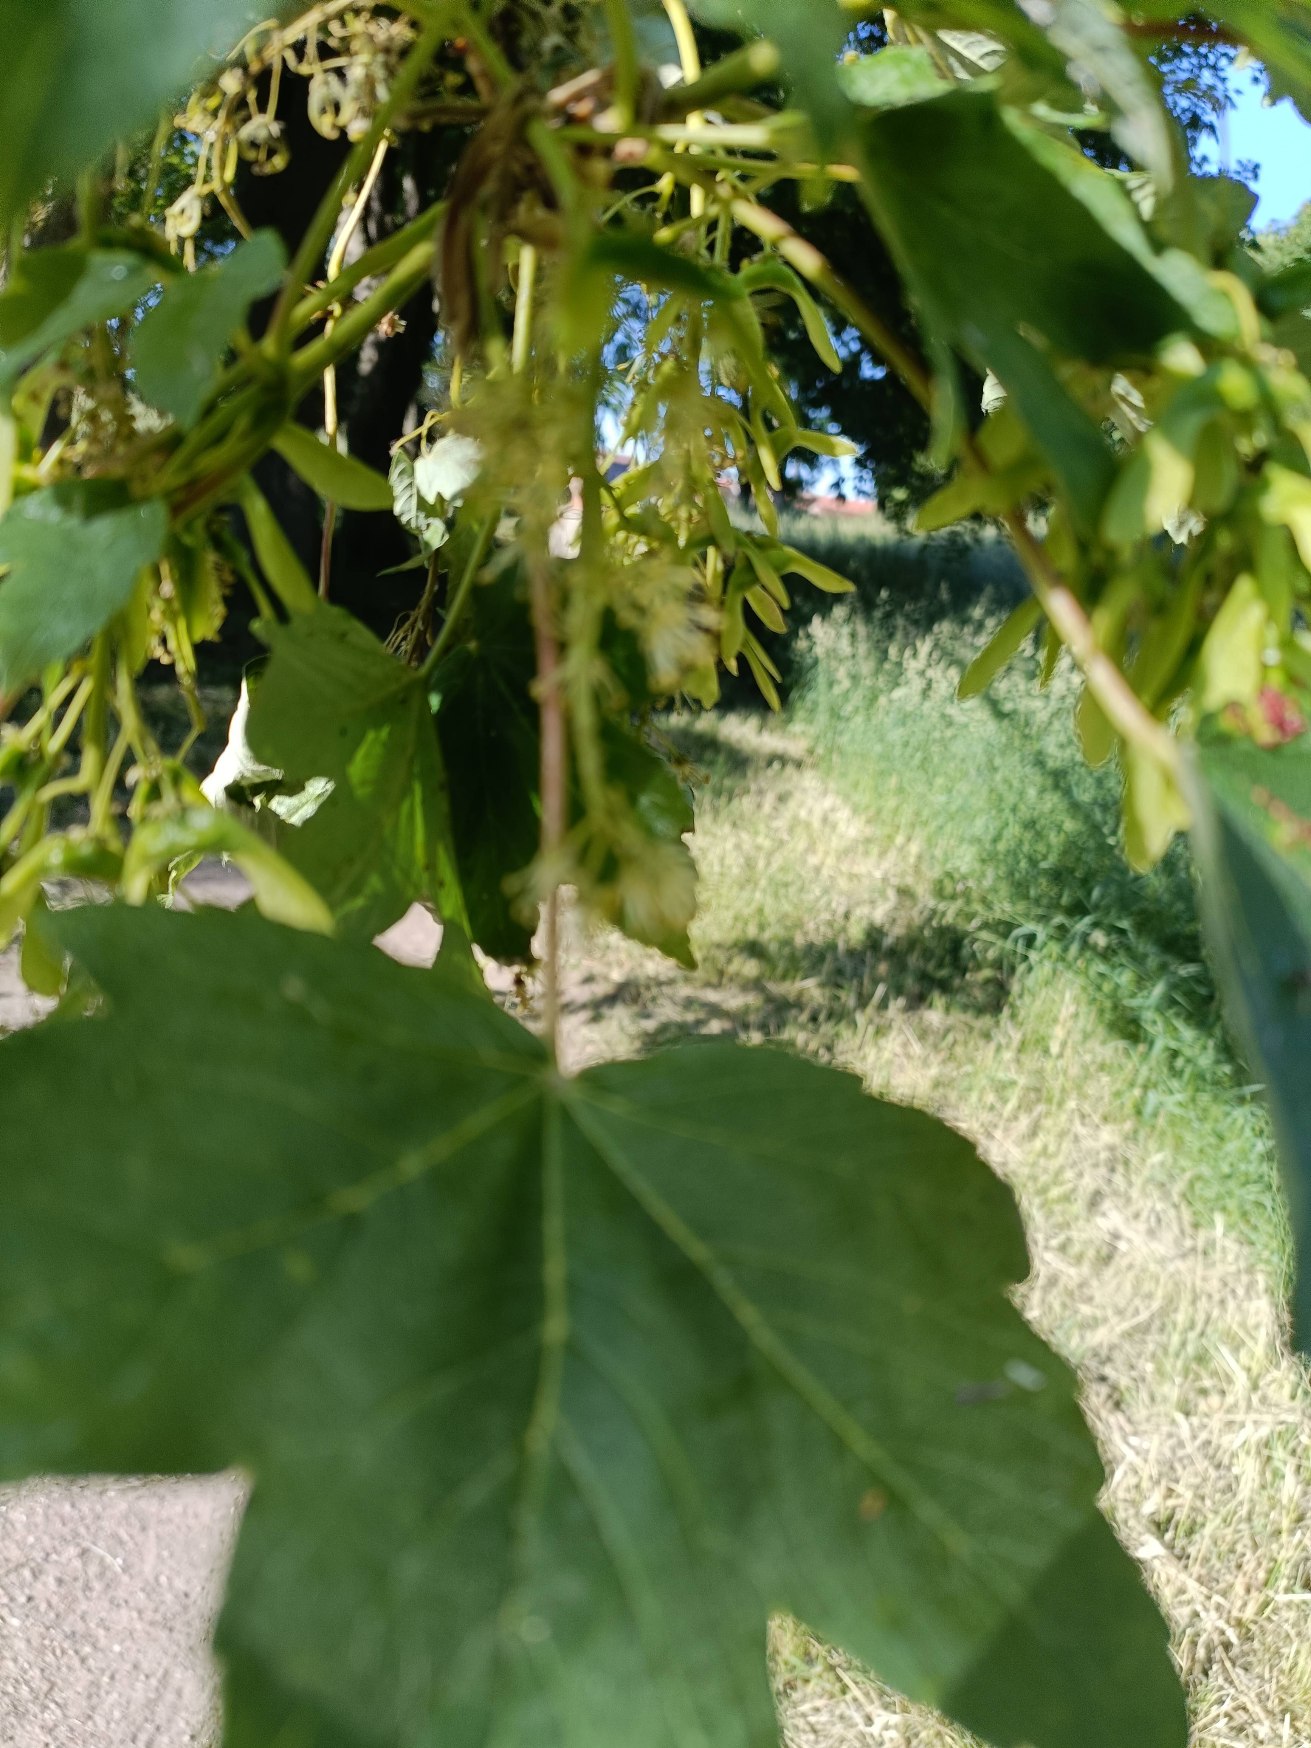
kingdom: Plantae
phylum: Tracheophyta
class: Magnoliopsida
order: Sapindales
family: Sapindaceae
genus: Acer
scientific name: Acer pseudoplatanus
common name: Ahorn
